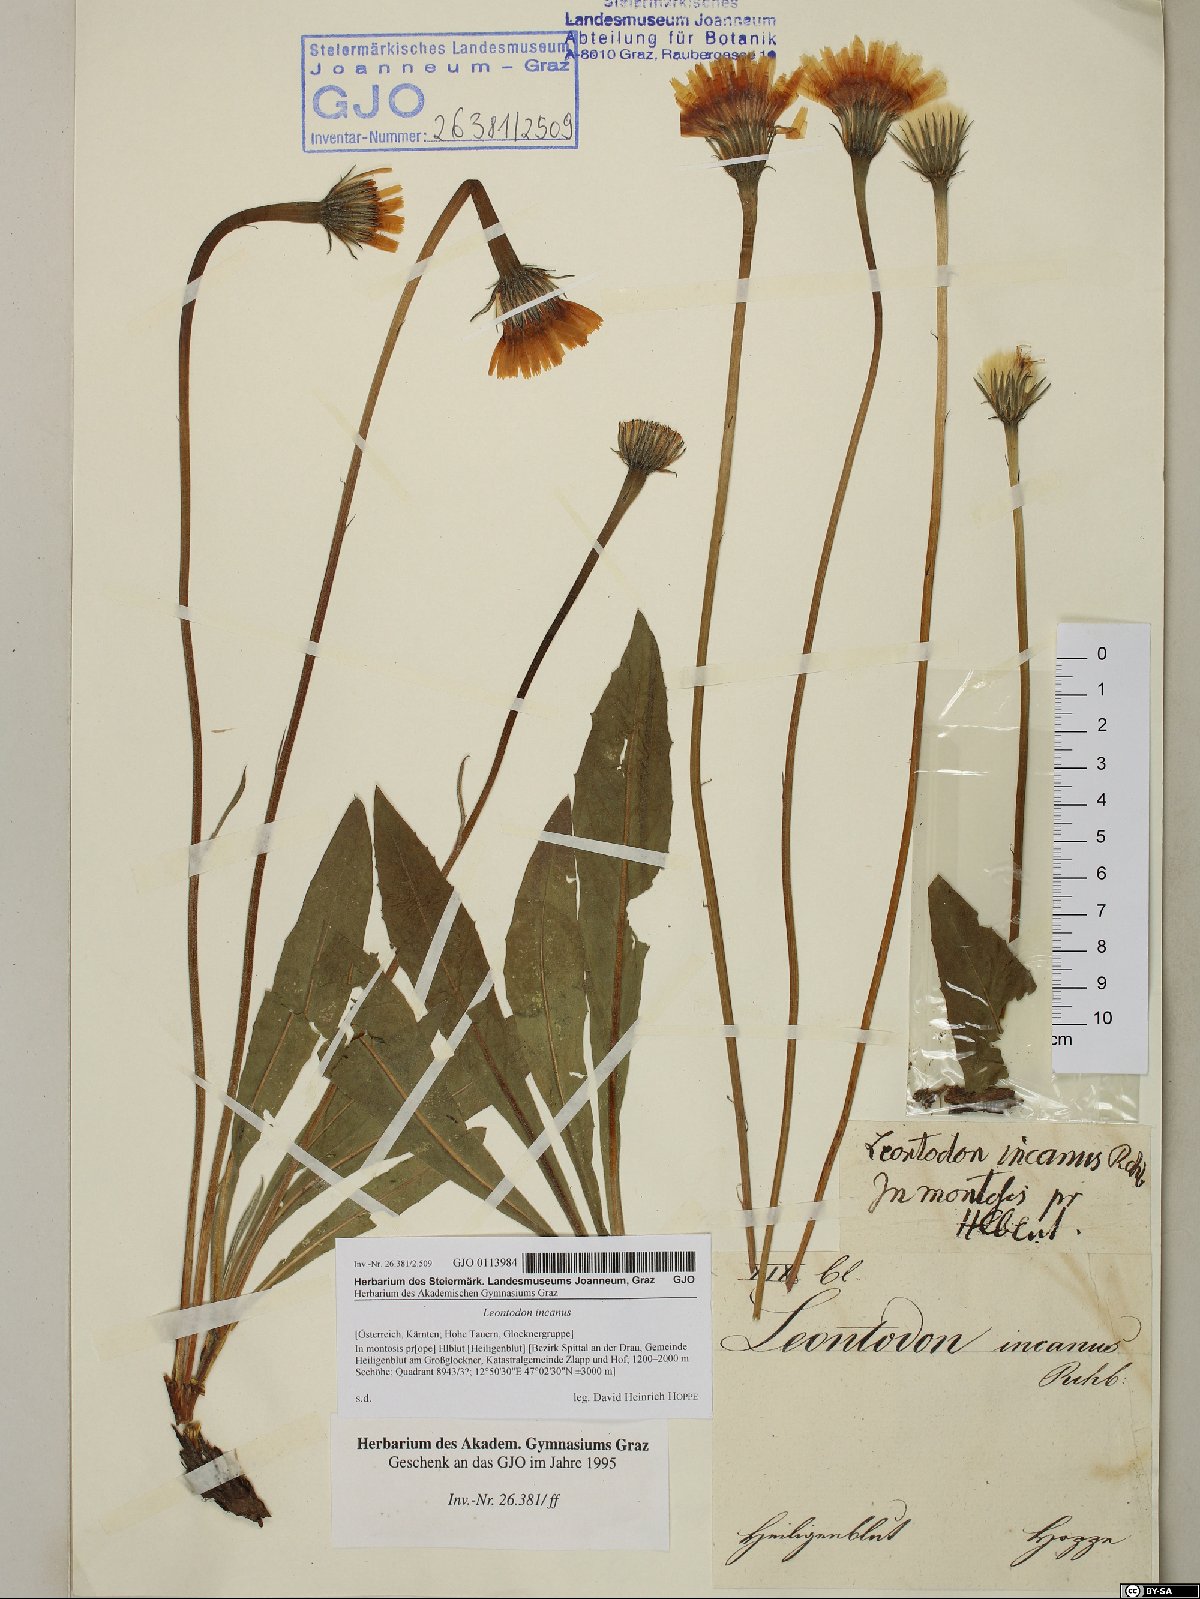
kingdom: Plantae
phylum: Tracheophyta
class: Magnoliopsida
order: Asterales
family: Asteraceae
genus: Leontodon
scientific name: Leontodon incanus
